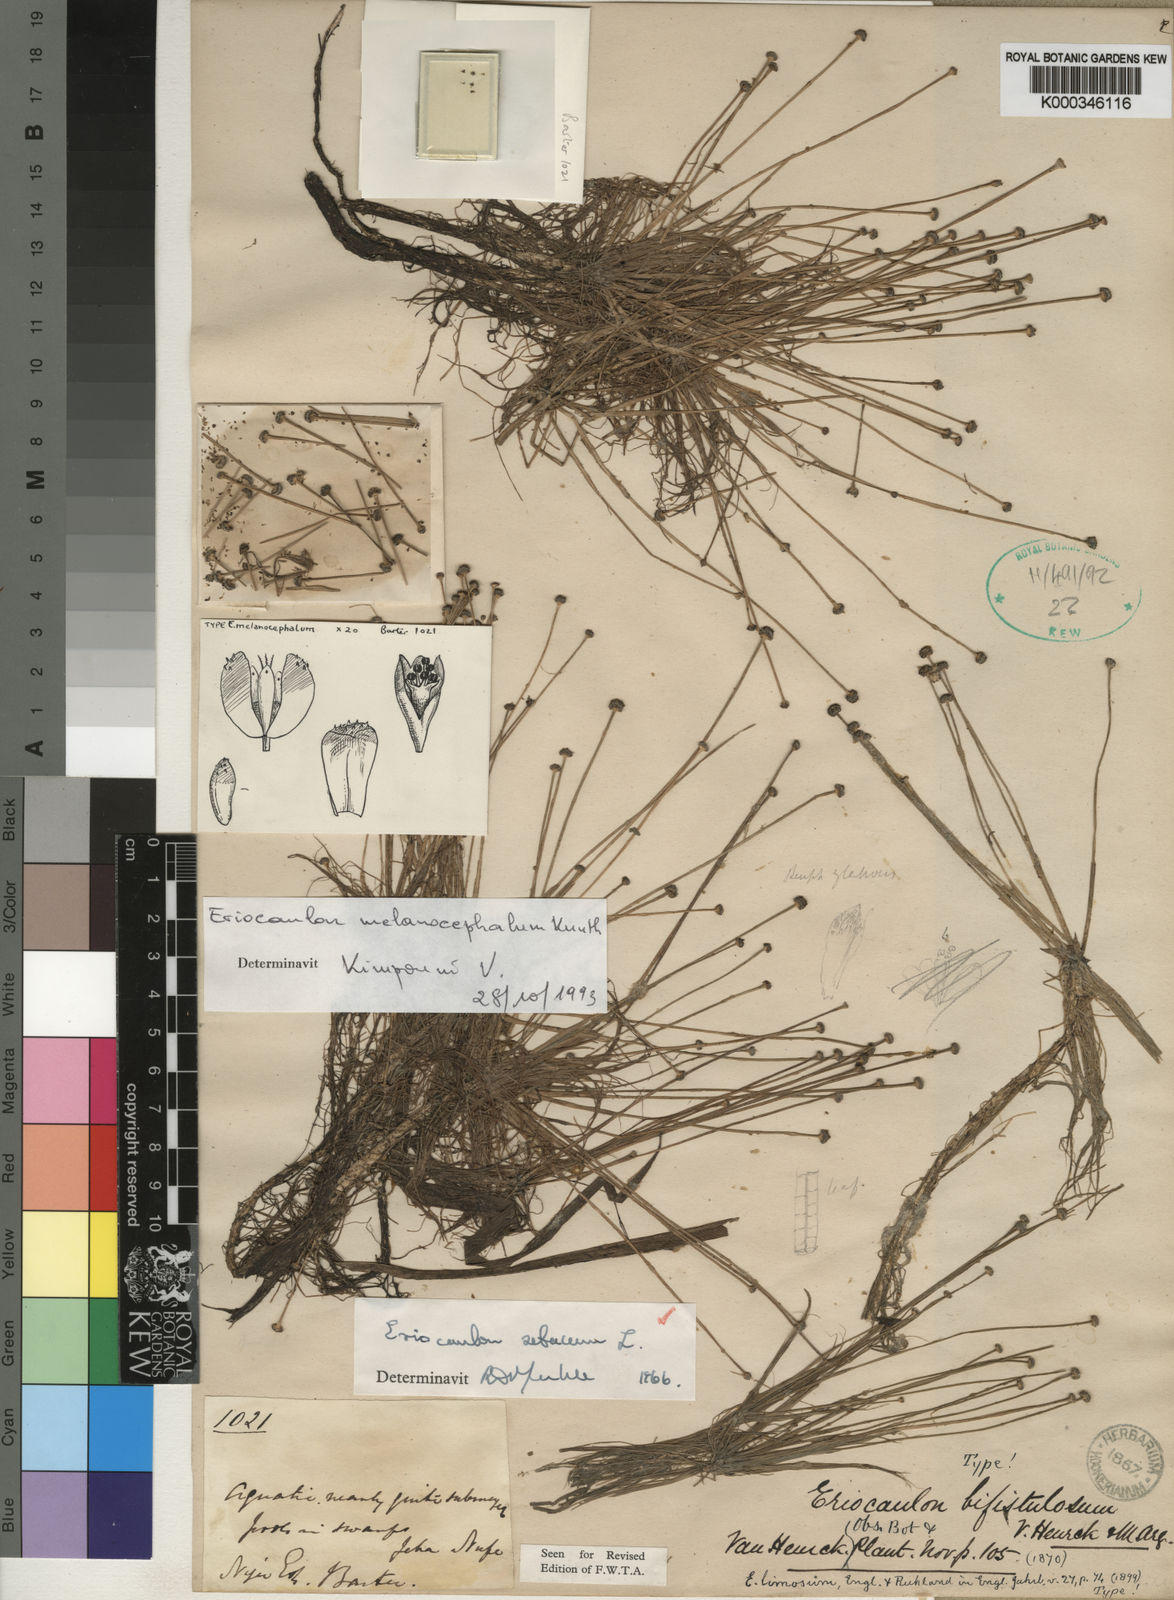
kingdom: Plantae
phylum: Tracheophyta
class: Liliopsida
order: Poales
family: Eriocaulaceae
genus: Eriocaulon
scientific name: Eriocaulon melanocephalum
